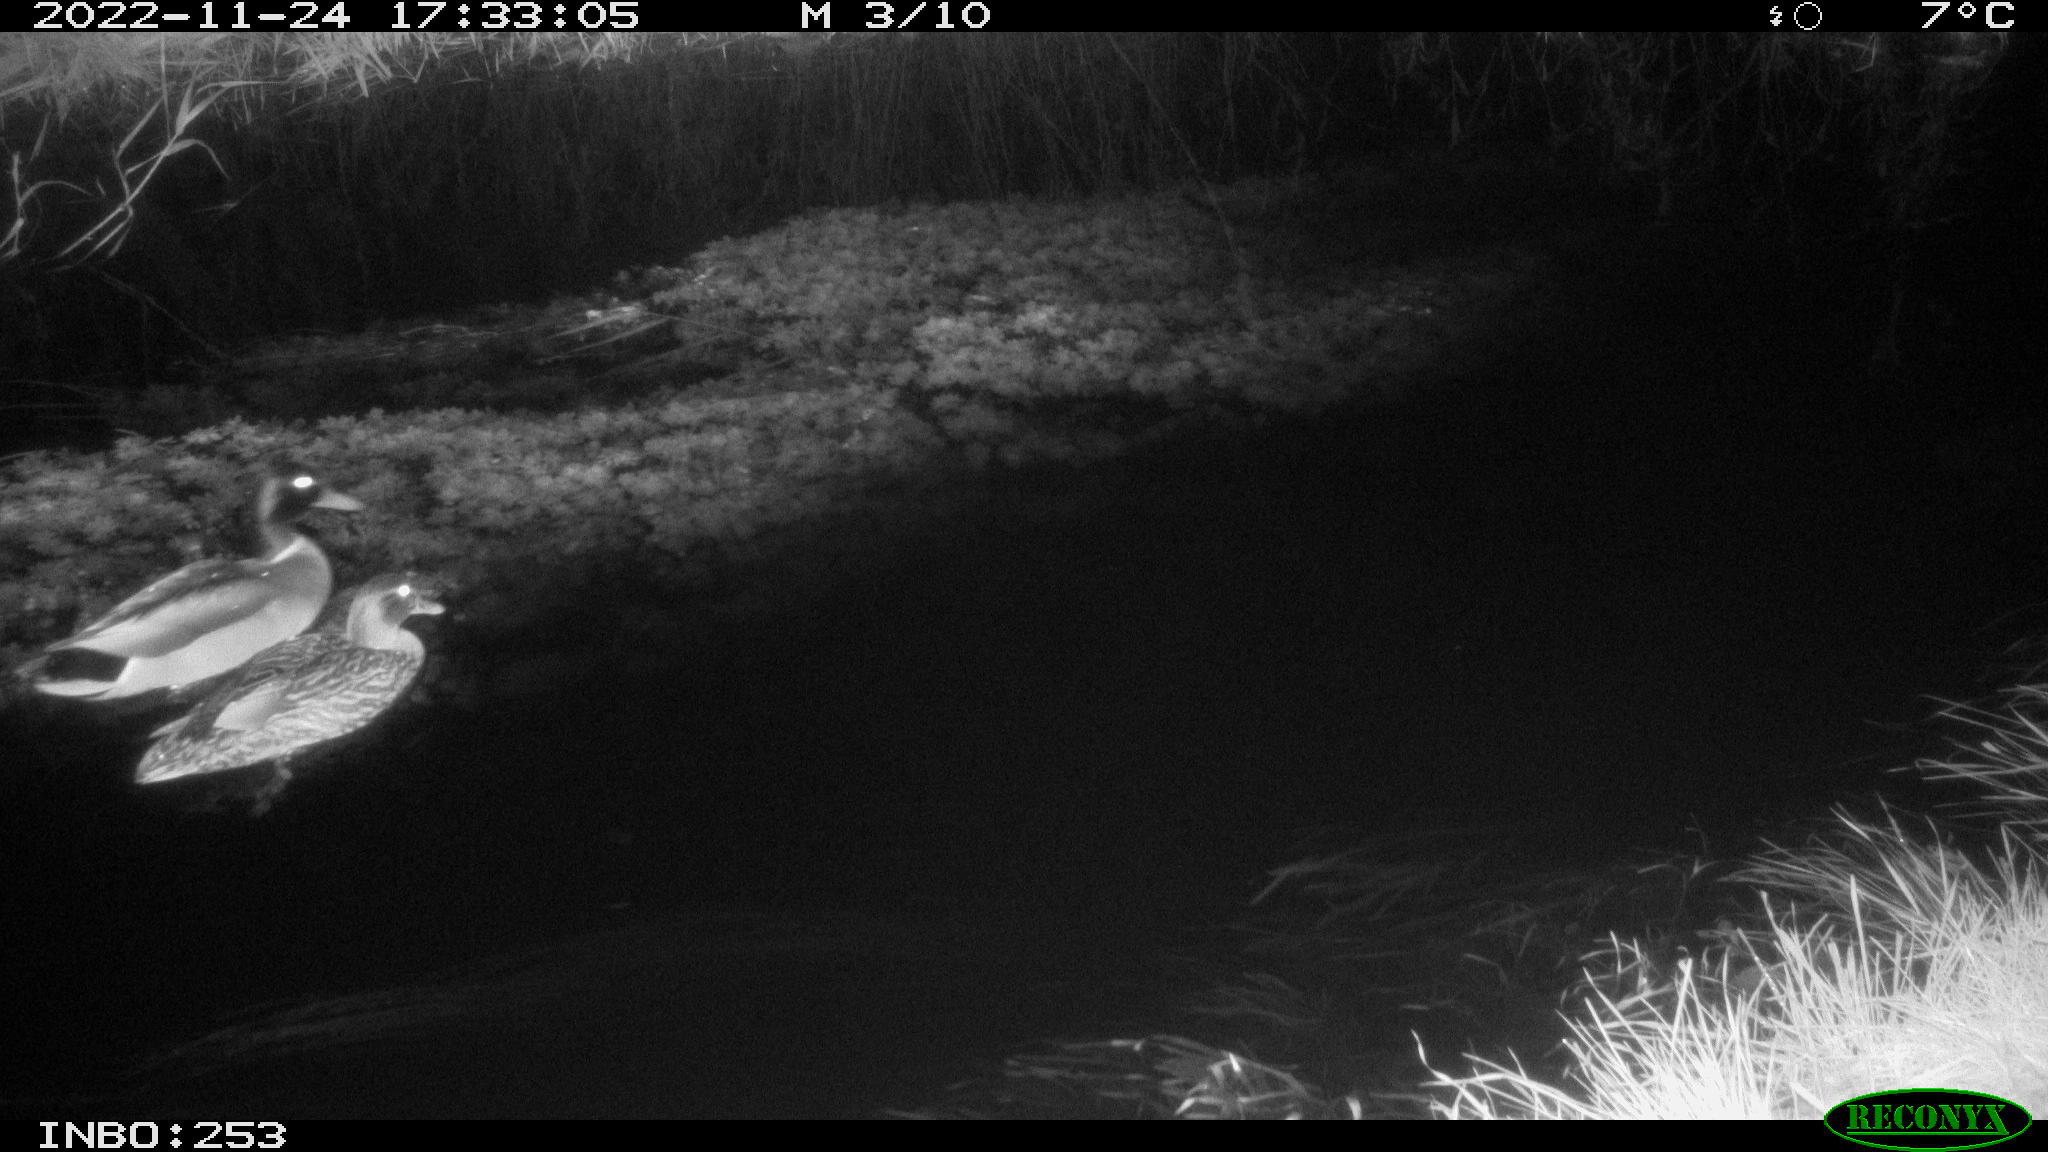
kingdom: Animalia
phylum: Chordata
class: Aves
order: Anseriformes
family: Anatidae
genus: Anas
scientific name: Anas
